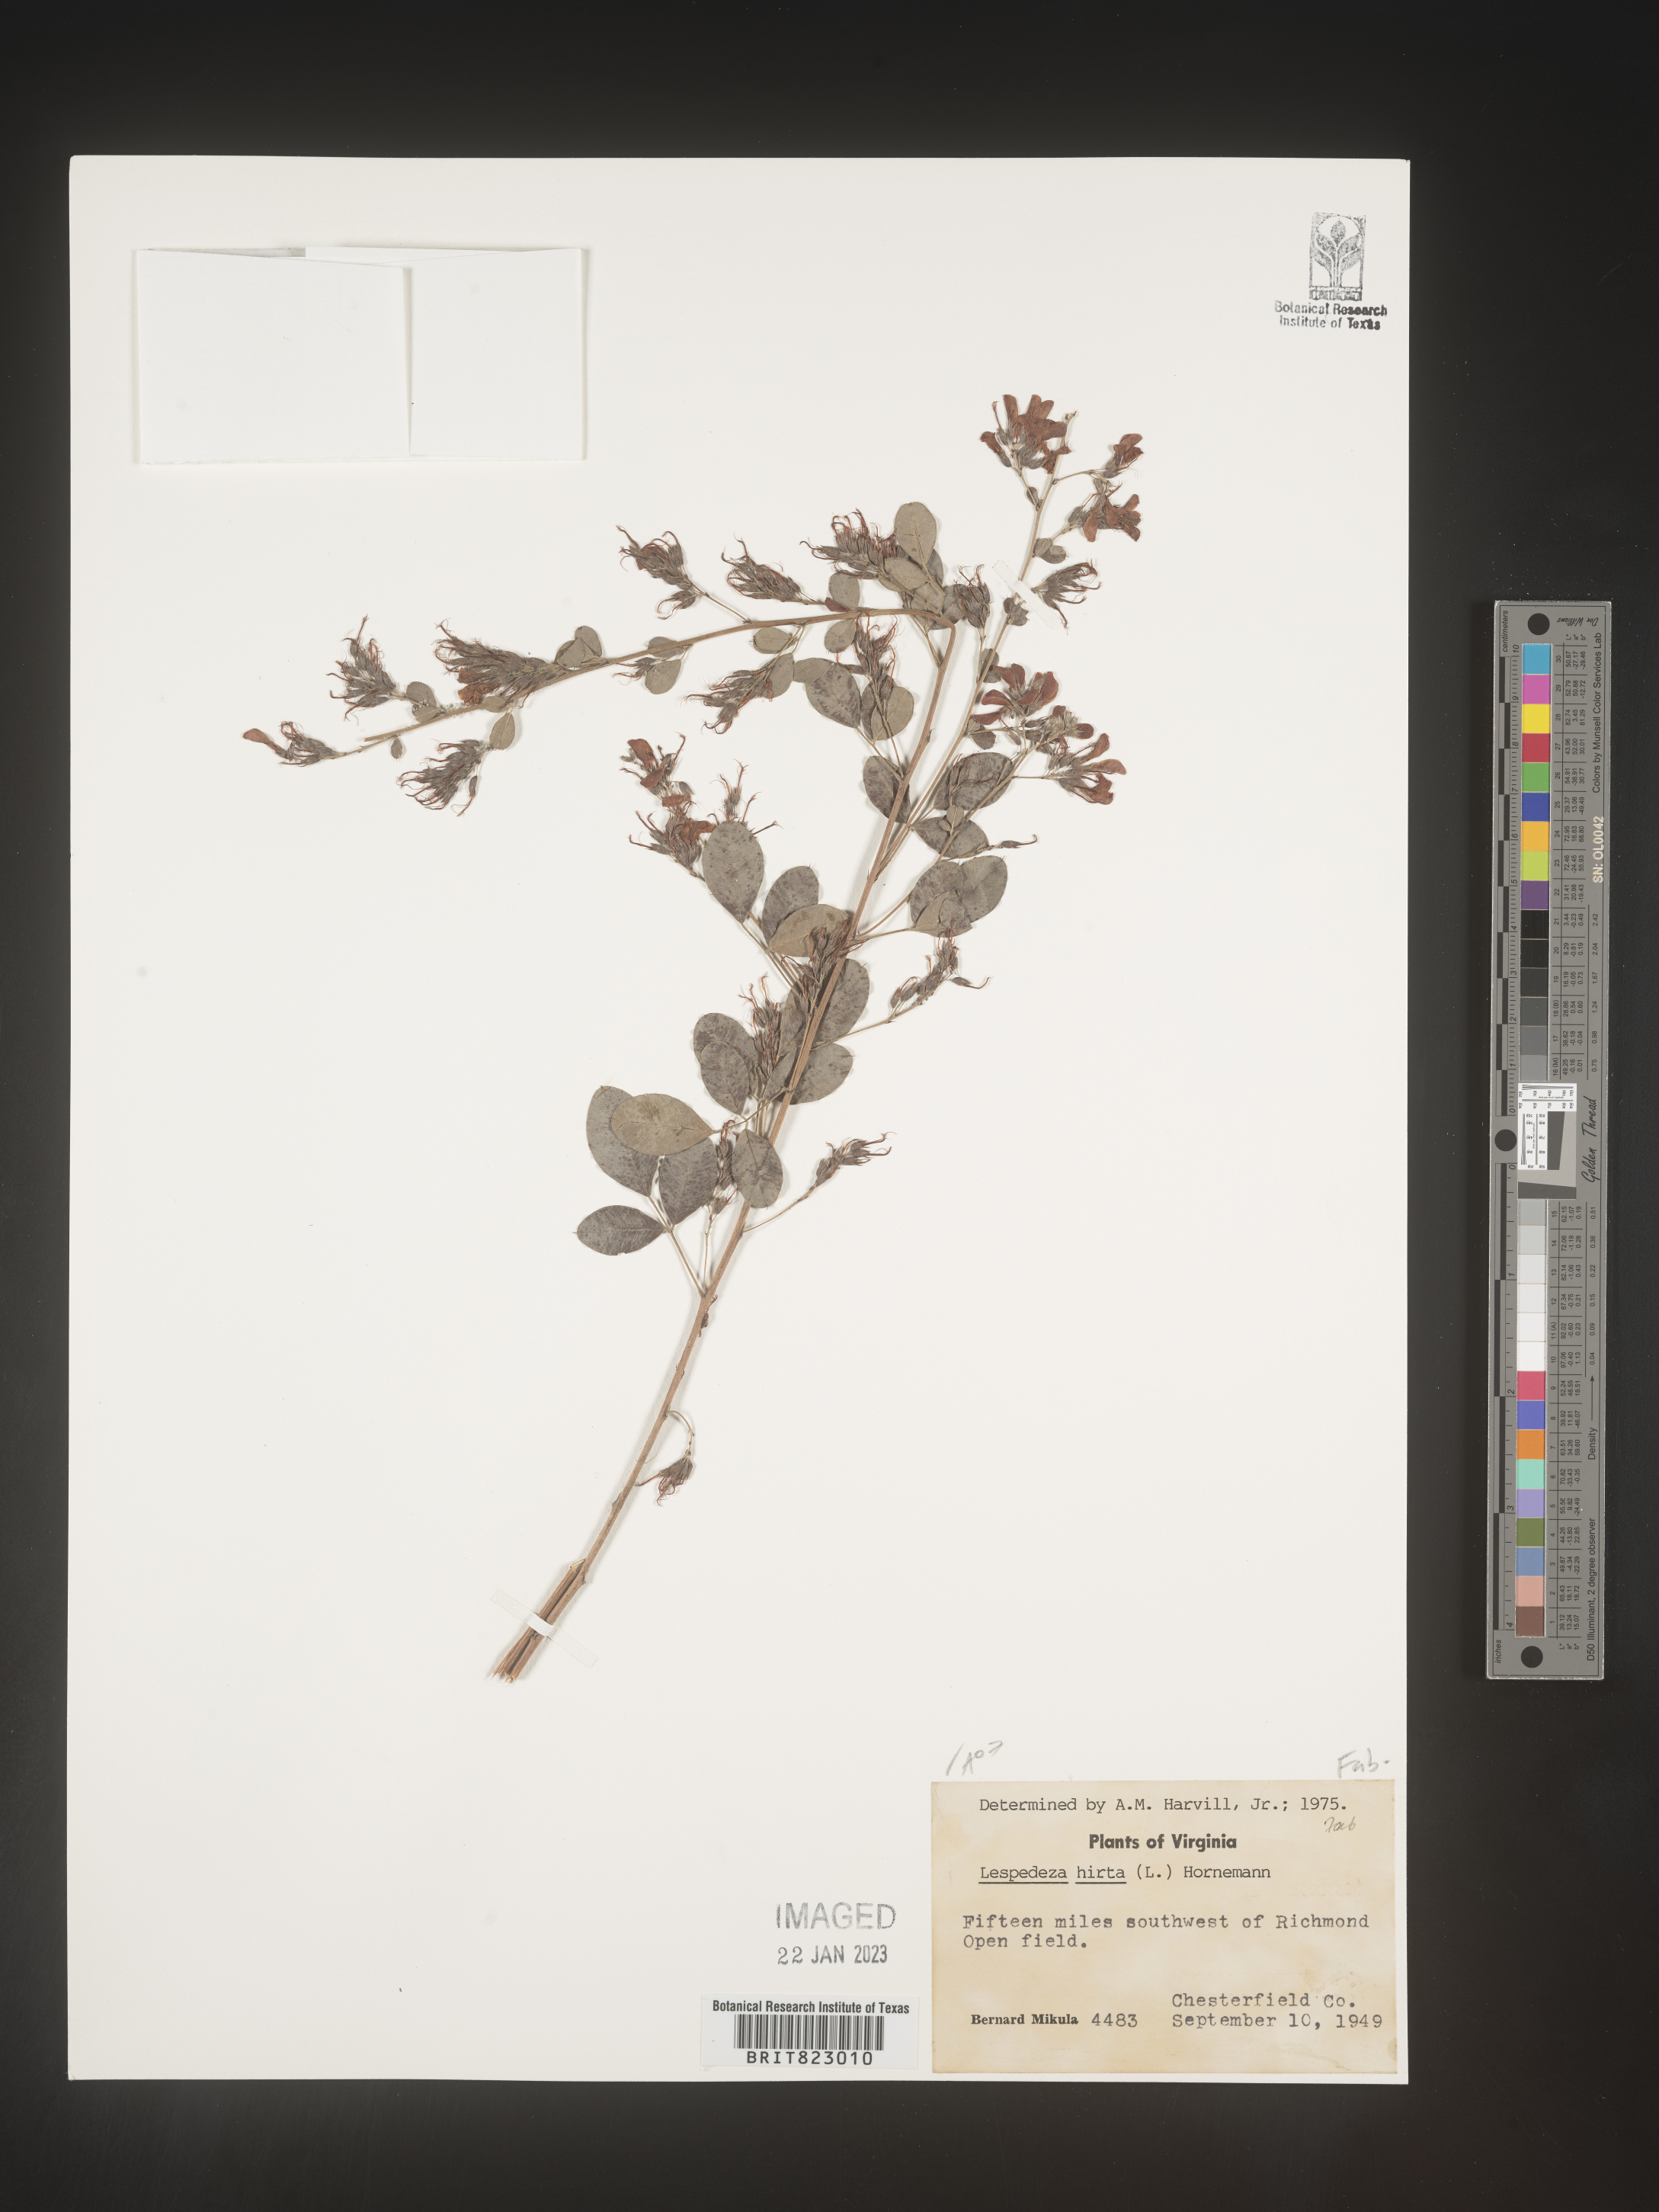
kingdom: Plantae
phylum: Tracheophyta
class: Magnoliopsida
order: Fabales
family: Fabaceae
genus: Lespedeza
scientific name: Lespedeza hirta
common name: Hairy lespedeza
